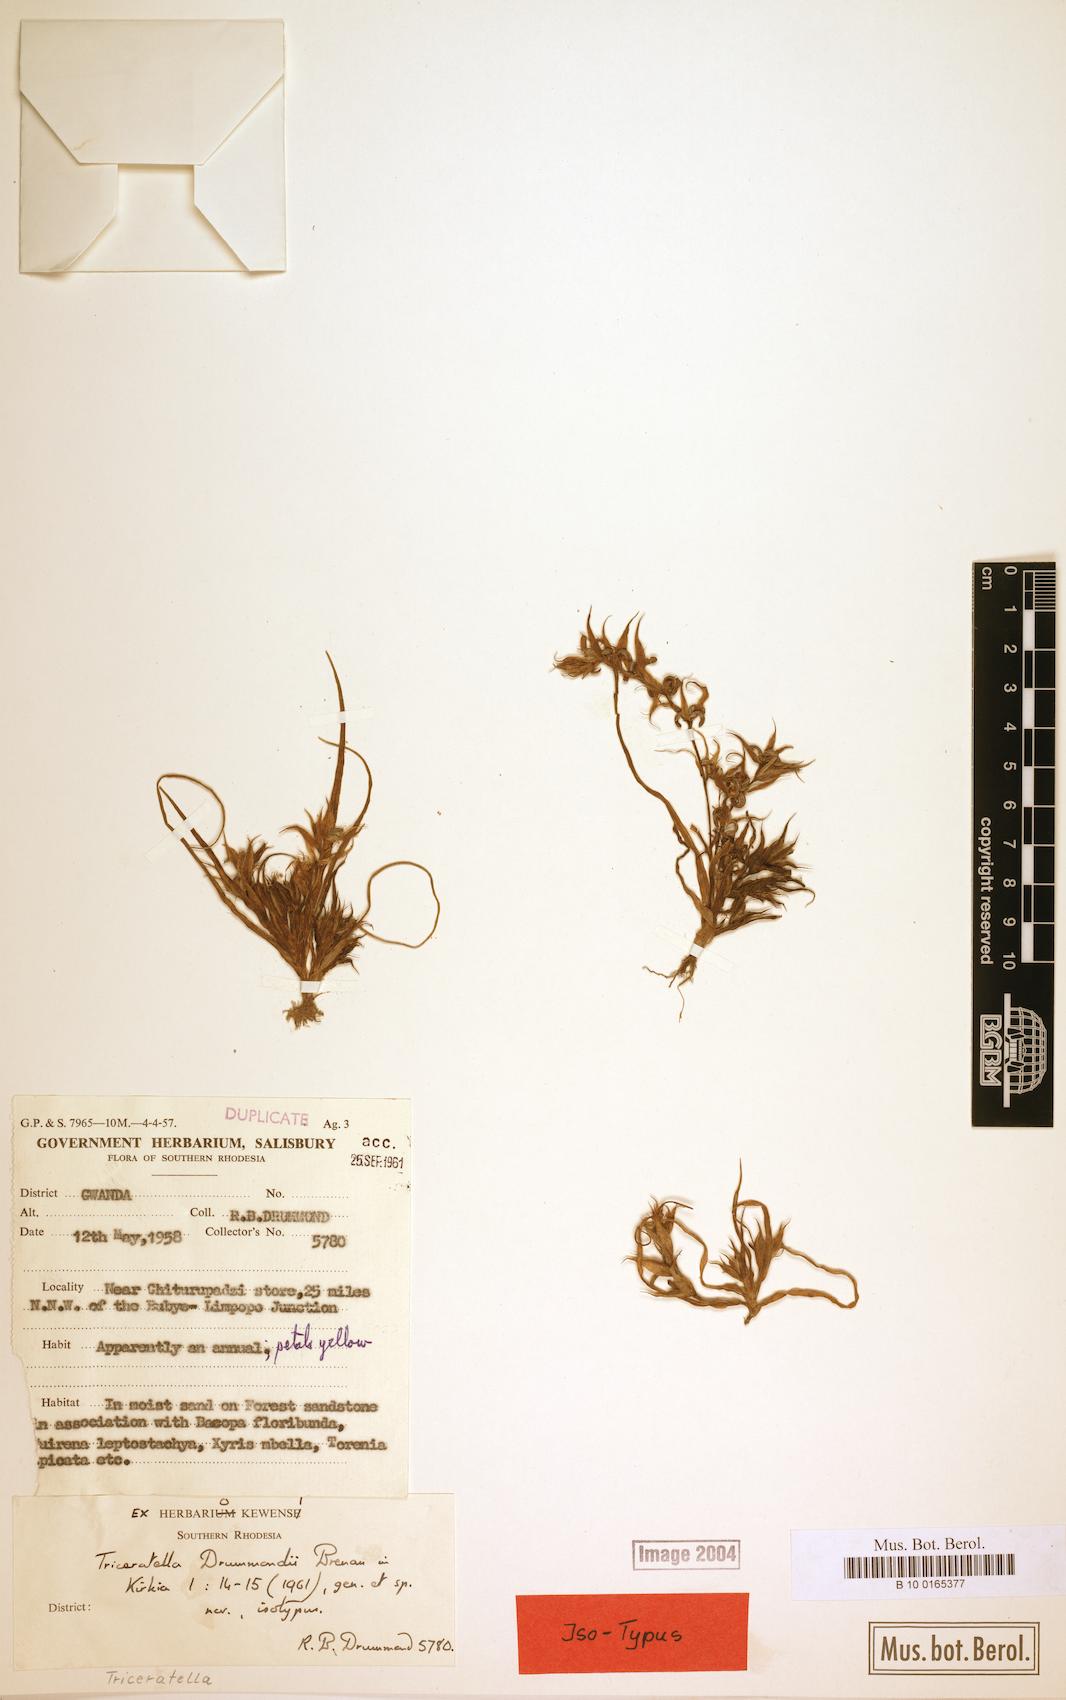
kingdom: Plantae
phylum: Tracheophyta
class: Liliopsida
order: Commelinales
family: Commelinaceae
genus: Triceratella
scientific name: Triceratella drummondii
